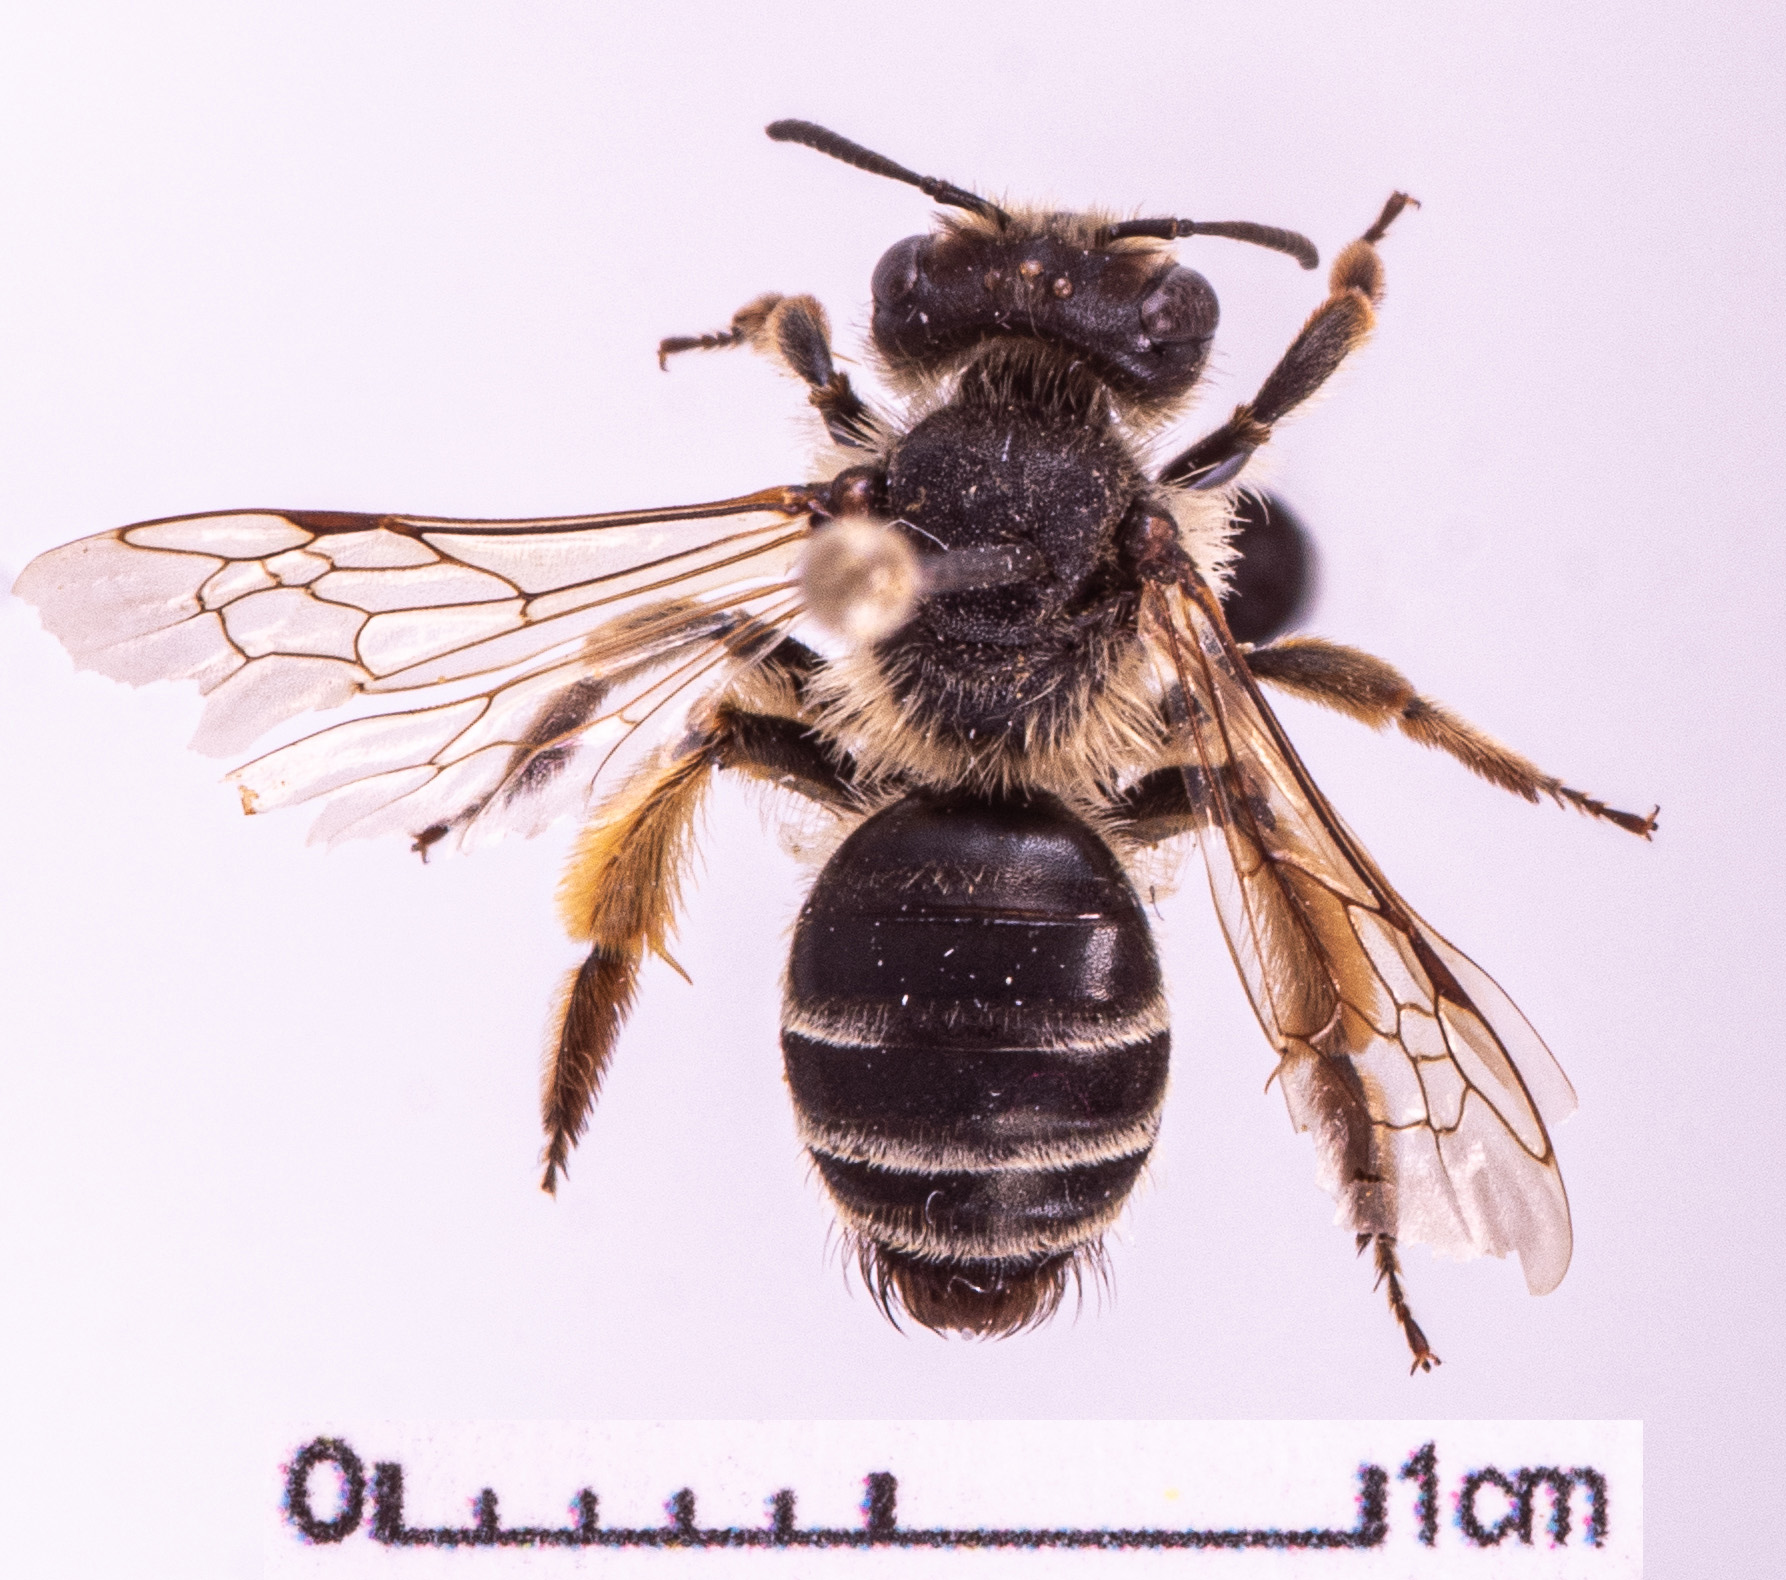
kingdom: Animalia
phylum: Arthropoda
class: Insecta
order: Hymenoptera
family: Andrenidae
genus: Andrena
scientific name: Andrena flavipes
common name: Yellow-legged mining bee
